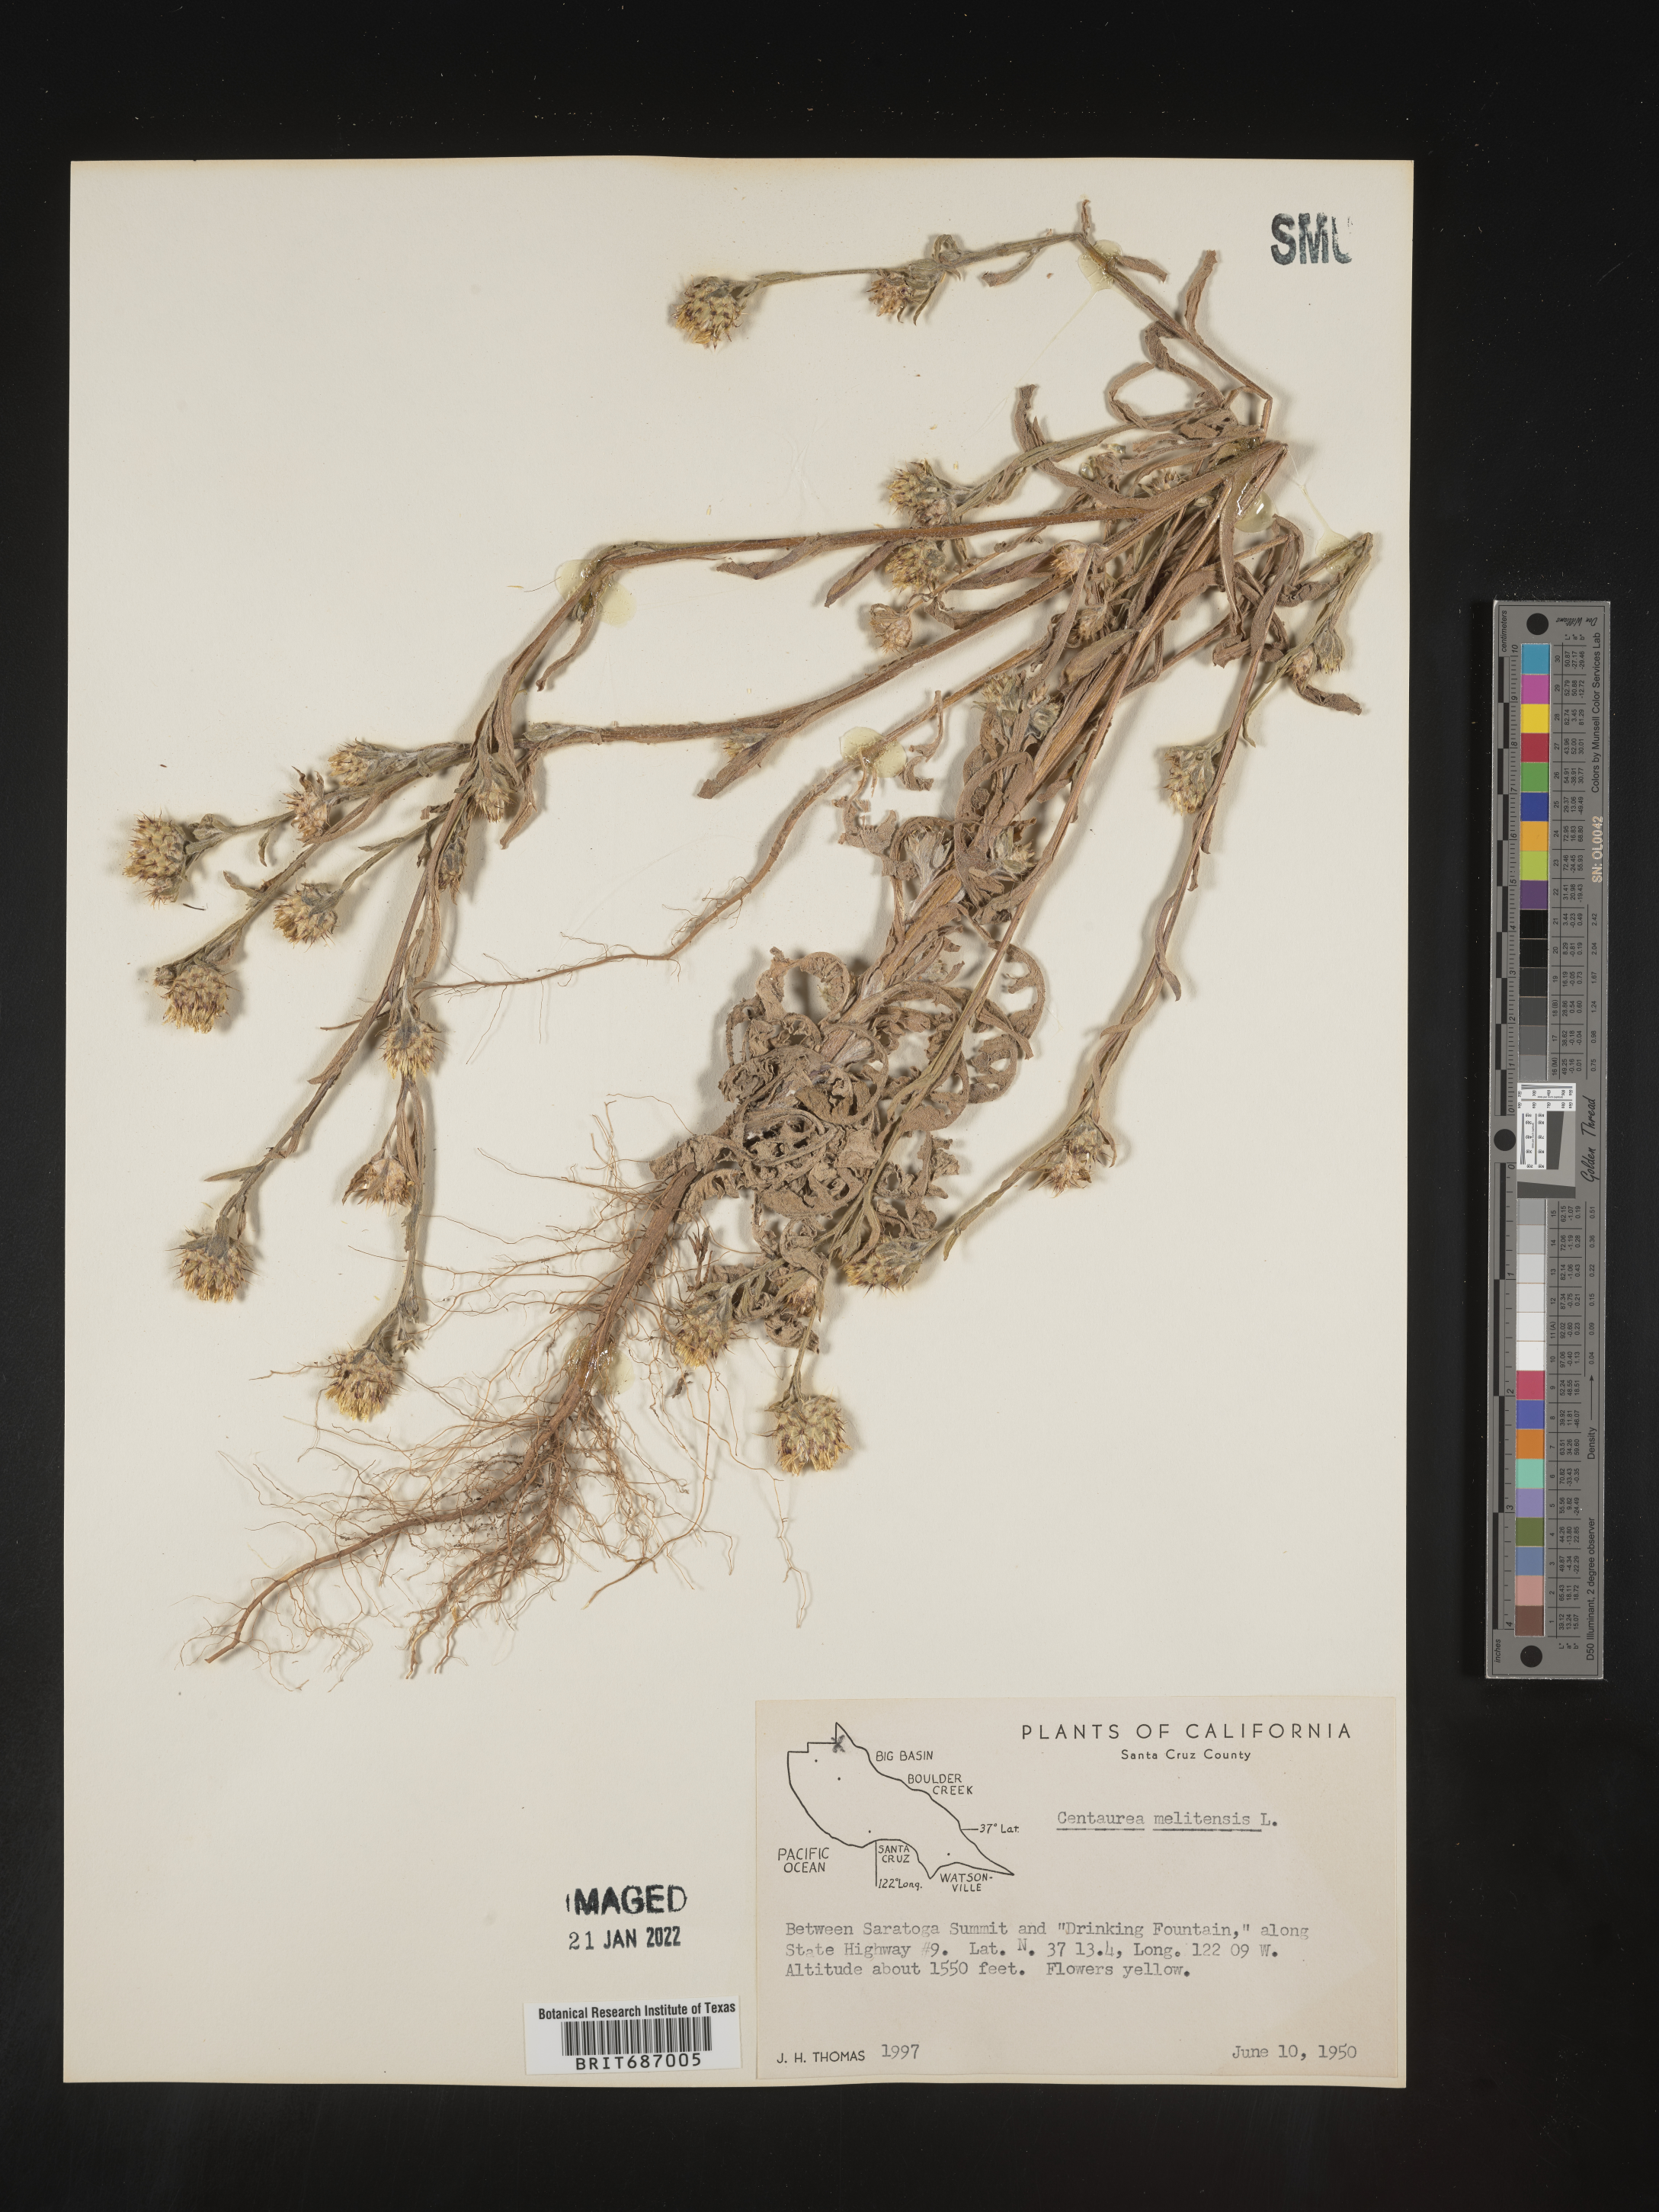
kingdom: Plantae
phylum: Tracheophyta
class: Magnoliopsida
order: Asterales
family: Asteraceae
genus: Centaurea
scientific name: Centaurea melitensis
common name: Maltese star-thistle
